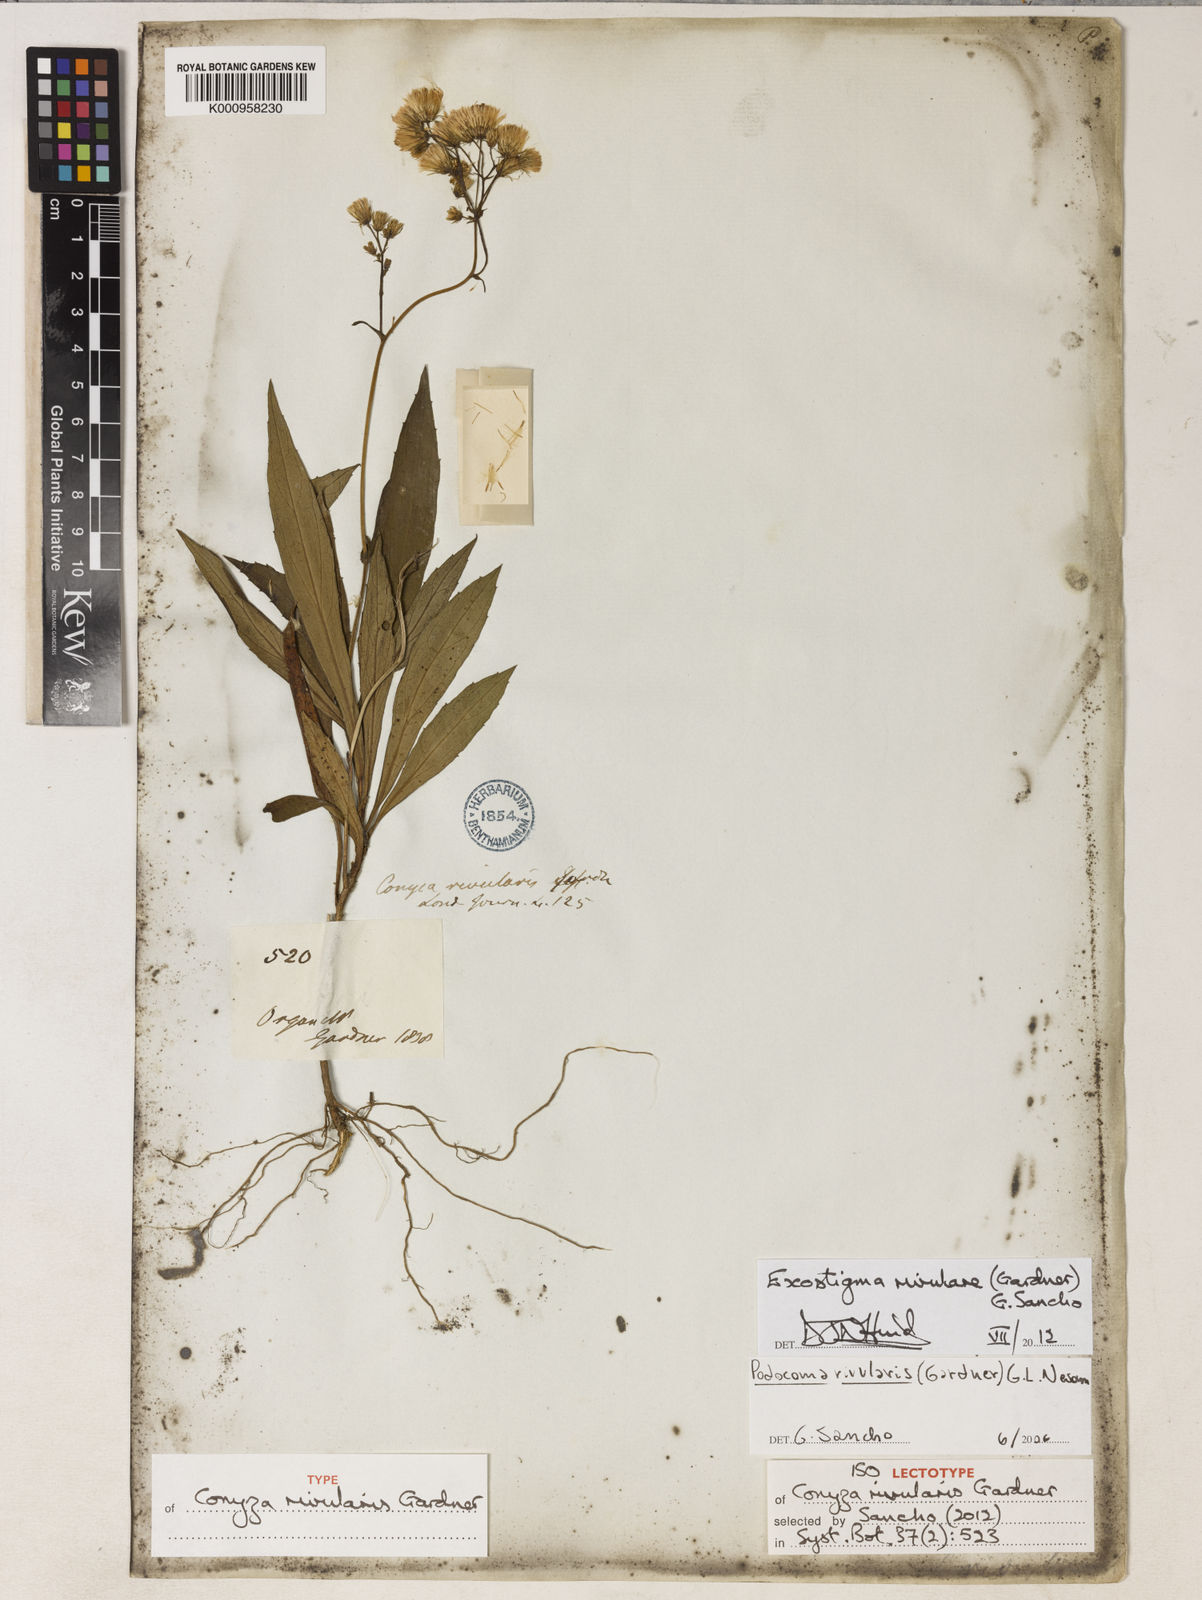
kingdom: Plantae
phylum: Tracheophyta
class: Magnoliopsida
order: Asterales
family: Asteraceae
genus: Exostigma
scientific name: Exostigma rivulare
